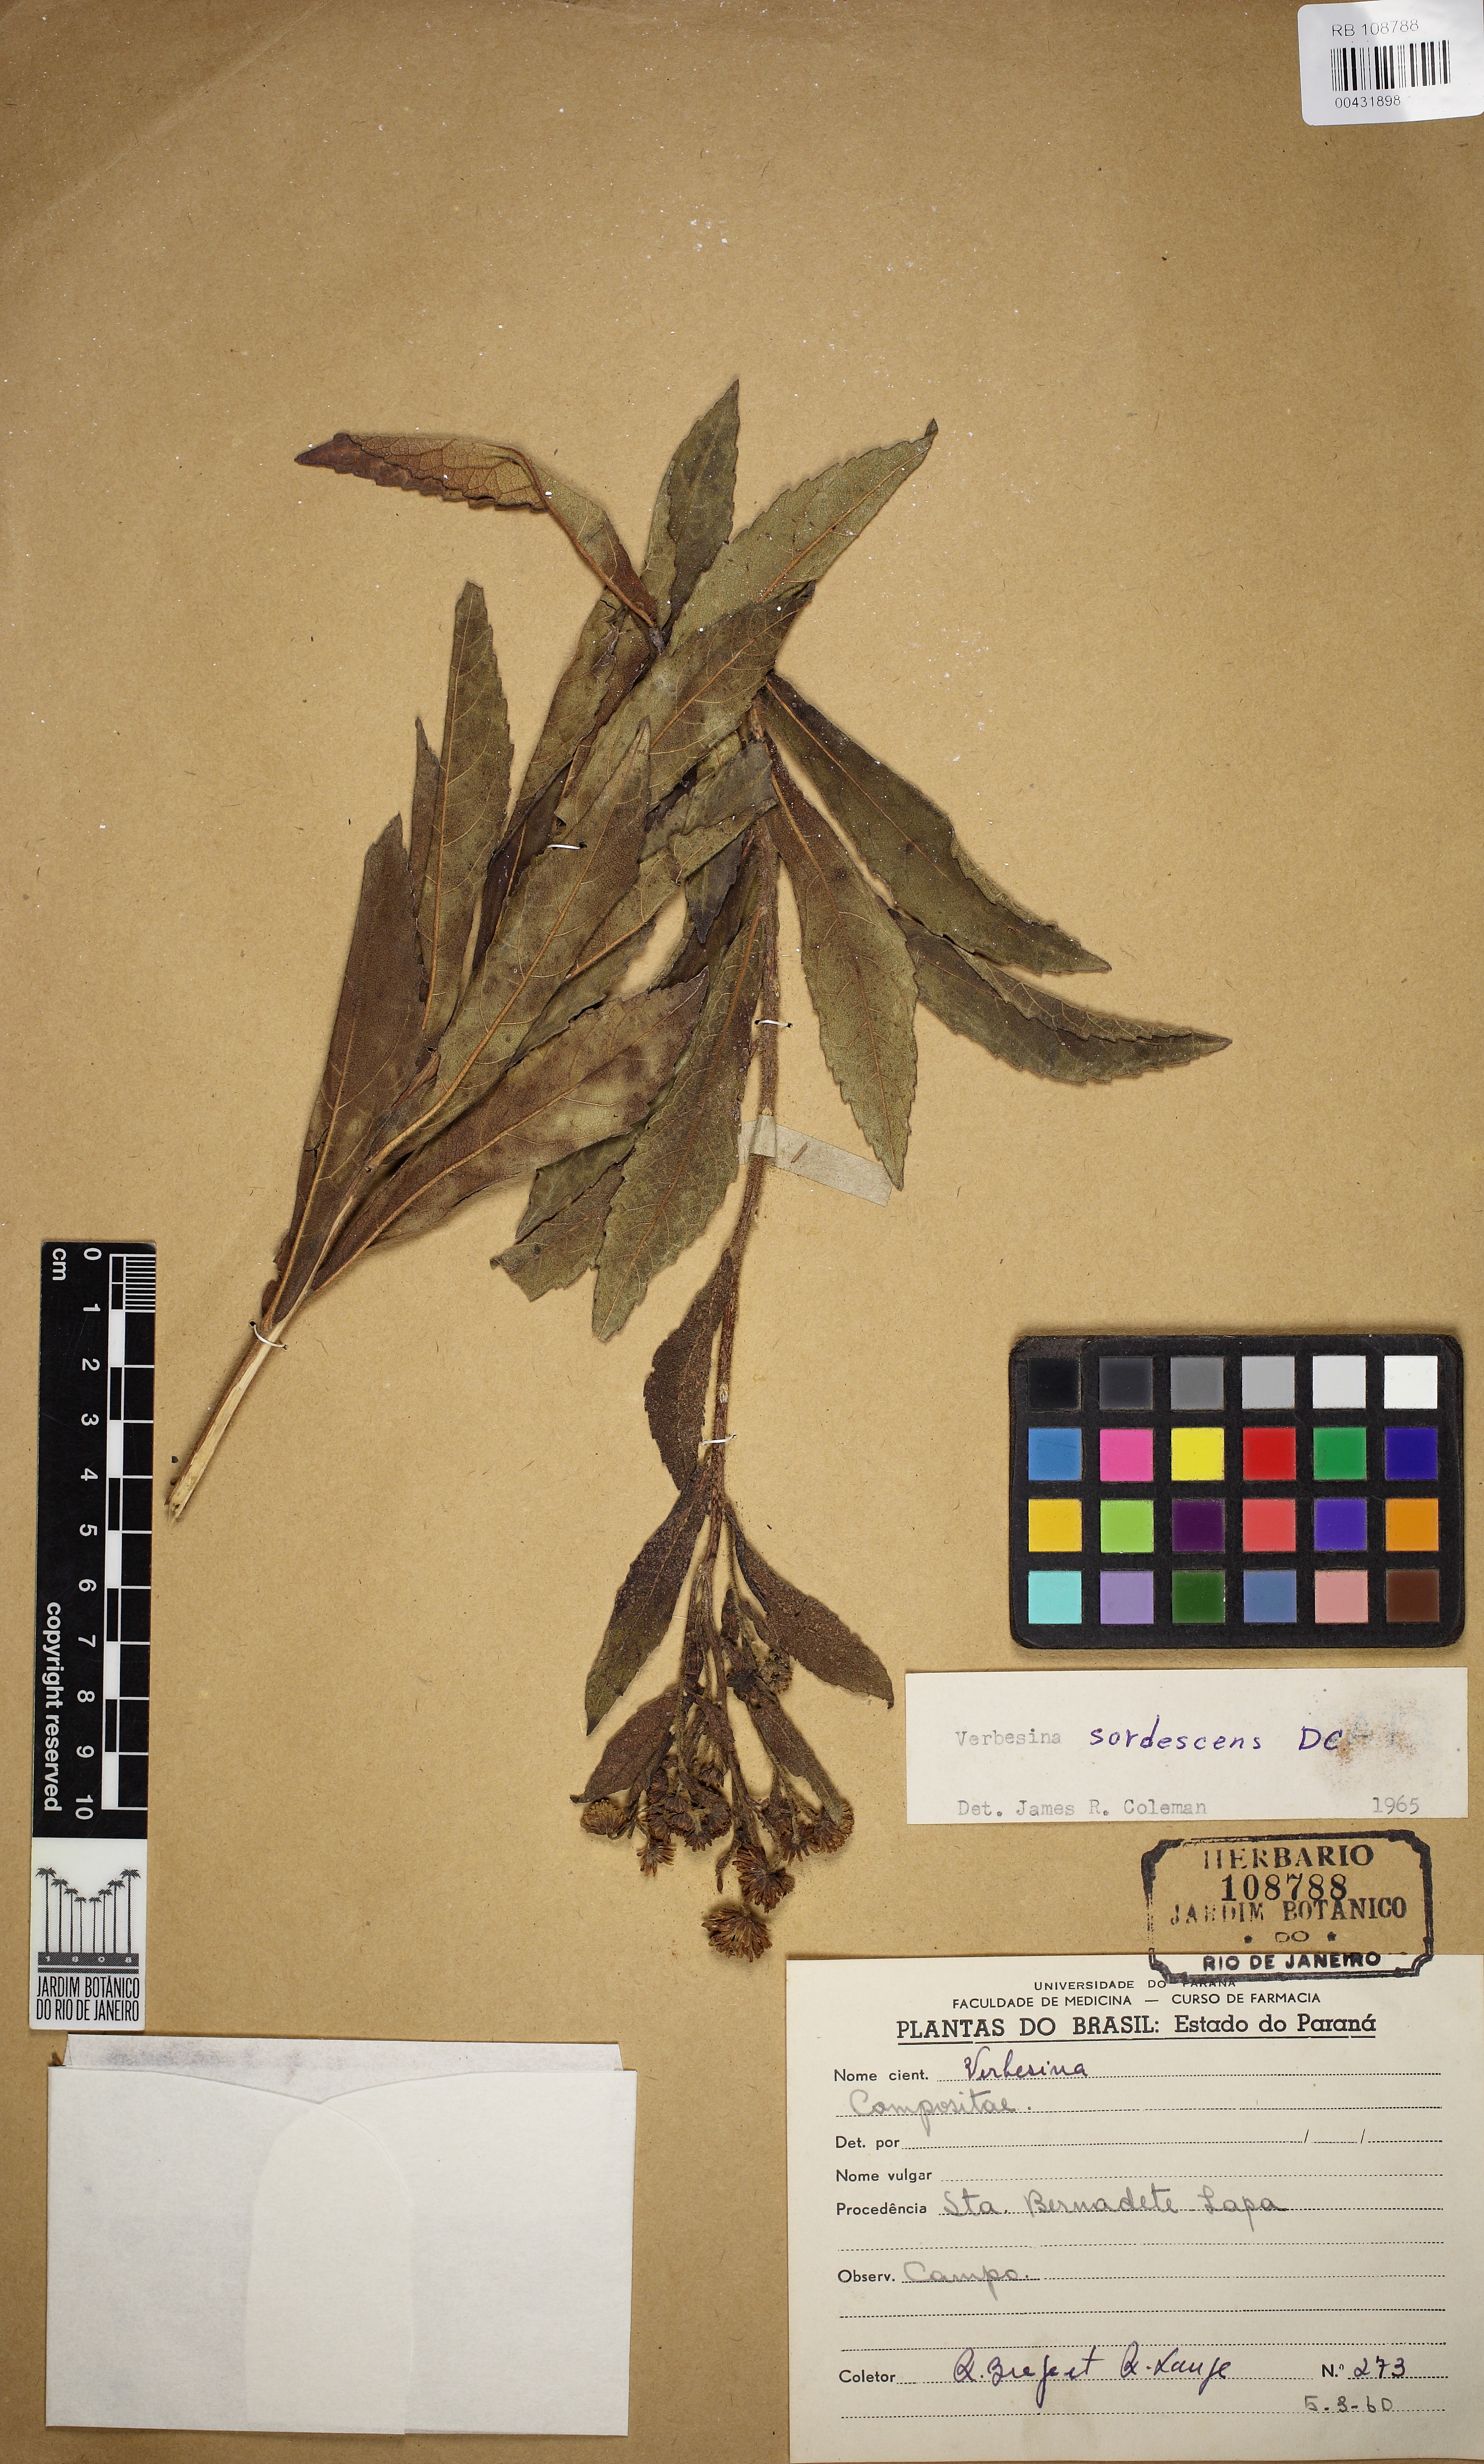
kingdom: Plantae
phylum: Tracheophyta
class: Magnoliopsida
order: Asterales
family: Asteraceae
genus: Verbesina
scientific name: Verbesina sordescens
